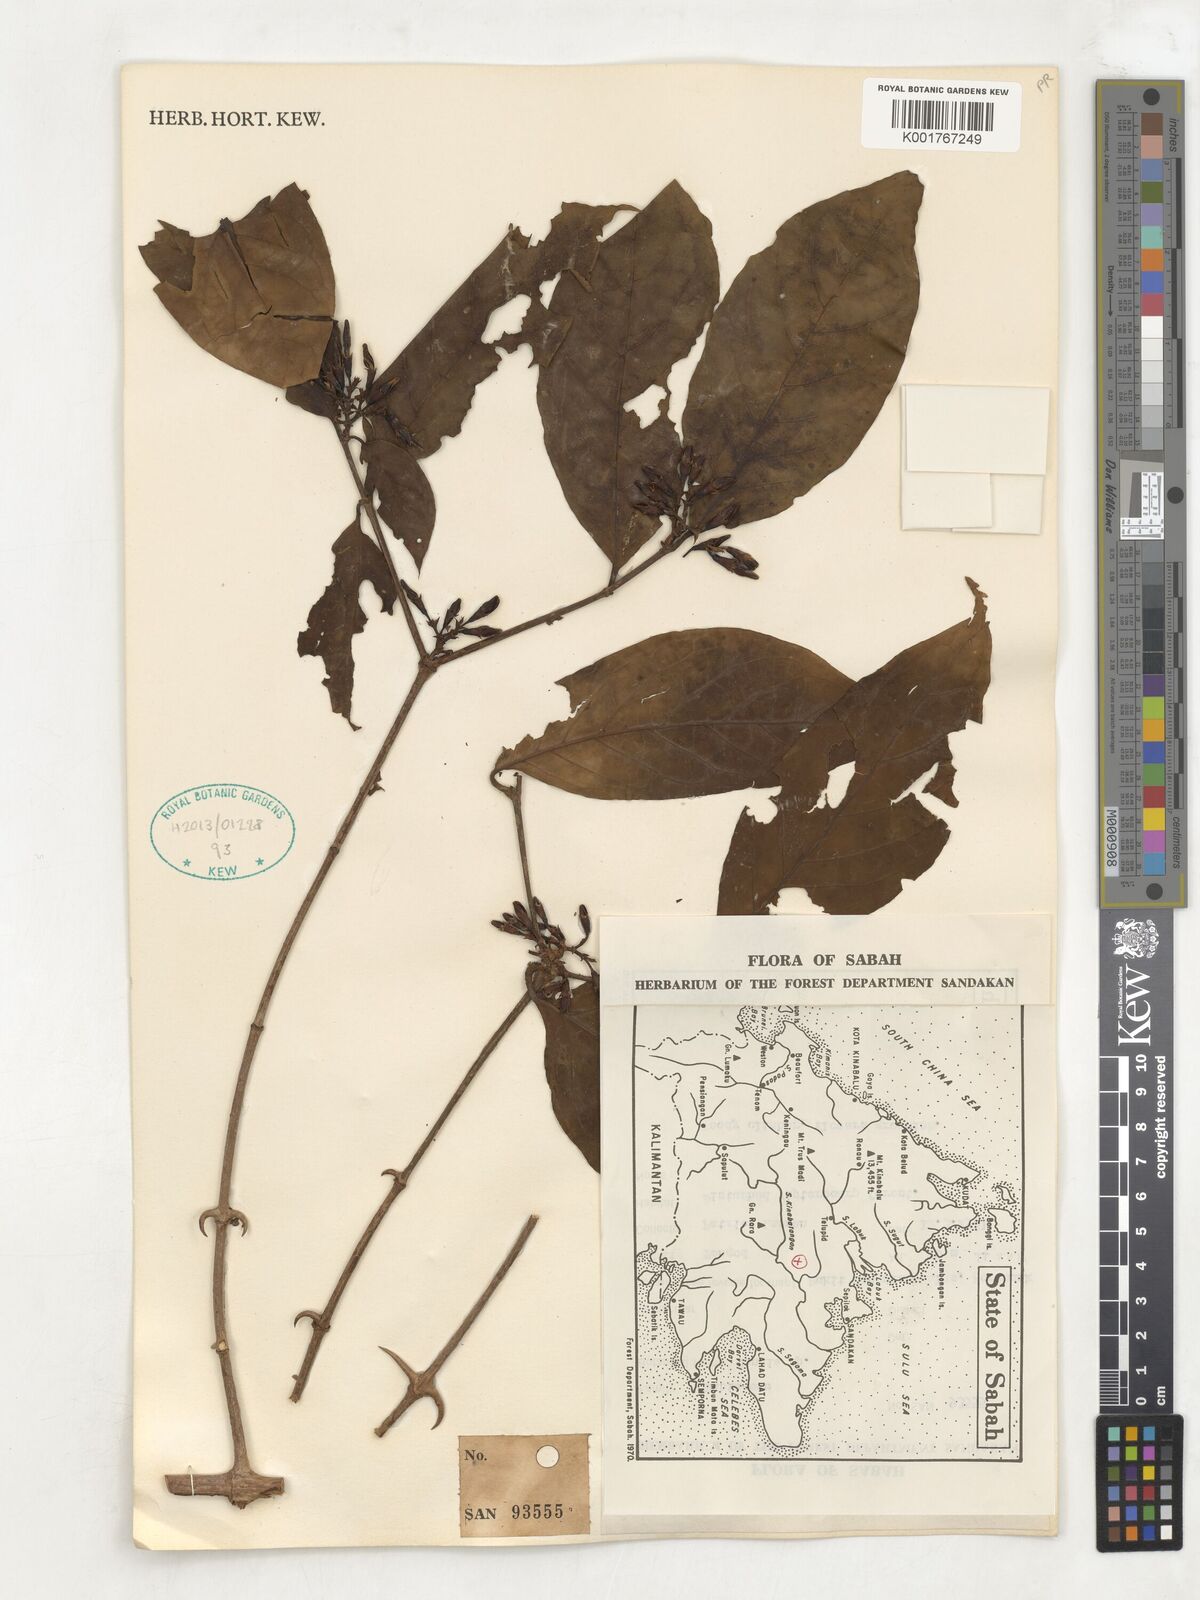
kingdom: Plantae
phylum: Tracheophyta
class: Magnoliopsida
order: Gentianales
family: Rubiaceae
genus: Oxyceros
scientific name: Oxyceros longiflorus
